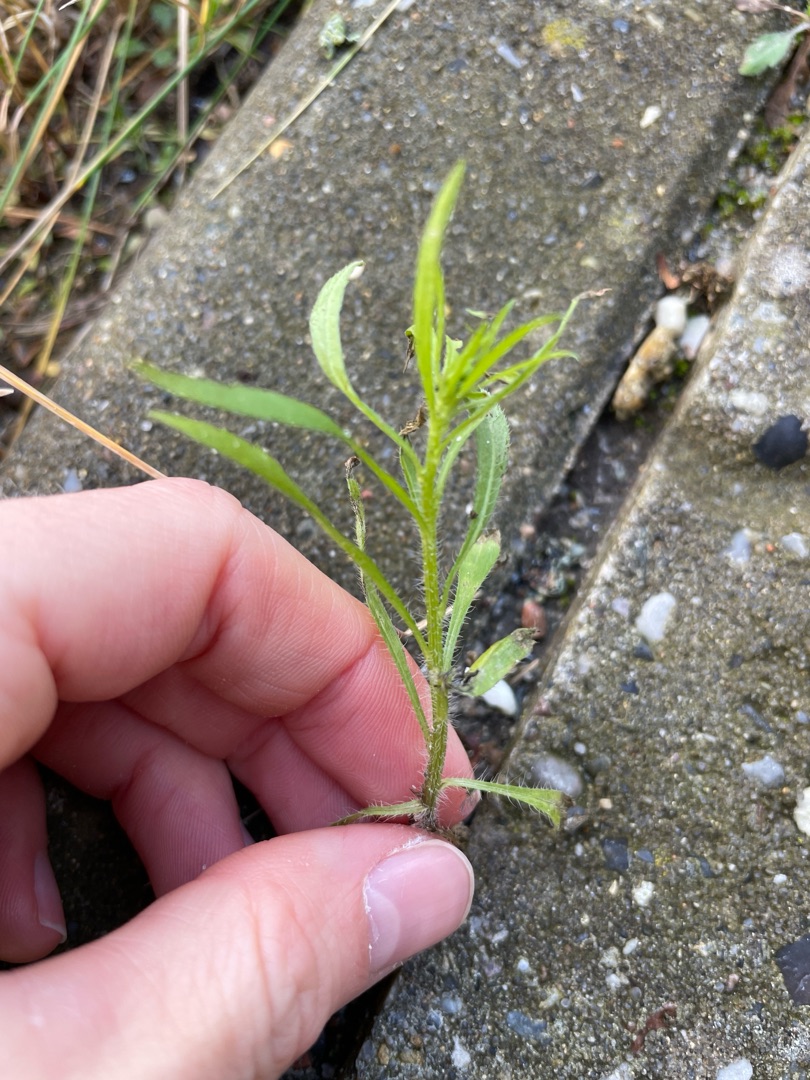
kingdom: Plantae
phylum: Tracheophyta
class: Magnoliopsida
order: Asterales
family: Asteraceae
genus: Erigeron
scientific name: Erigeron canadensis
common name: Kanadisk bakkestjerne
